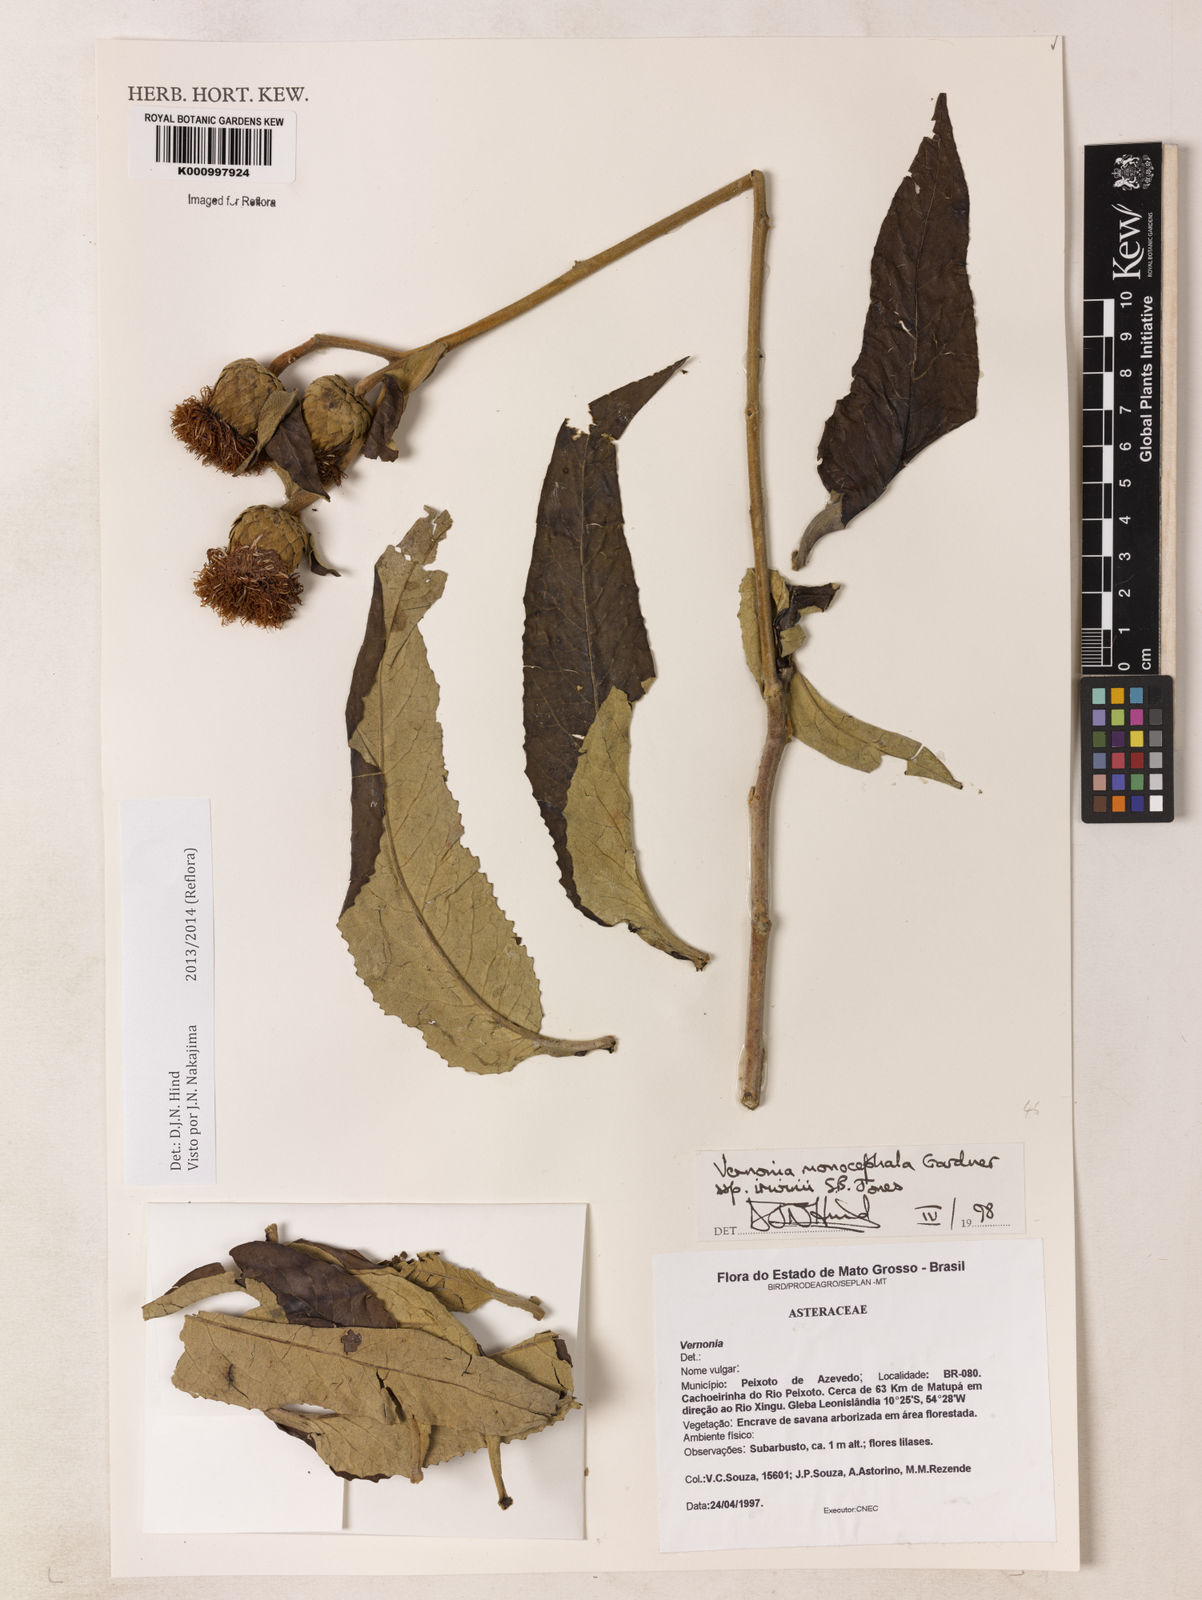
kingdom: Plantae
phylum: Tracheophyta
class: Magnoliopsida
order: Asterales
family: Asteraceae
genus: Lessingianthus
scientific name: Lessingianthus semirii
